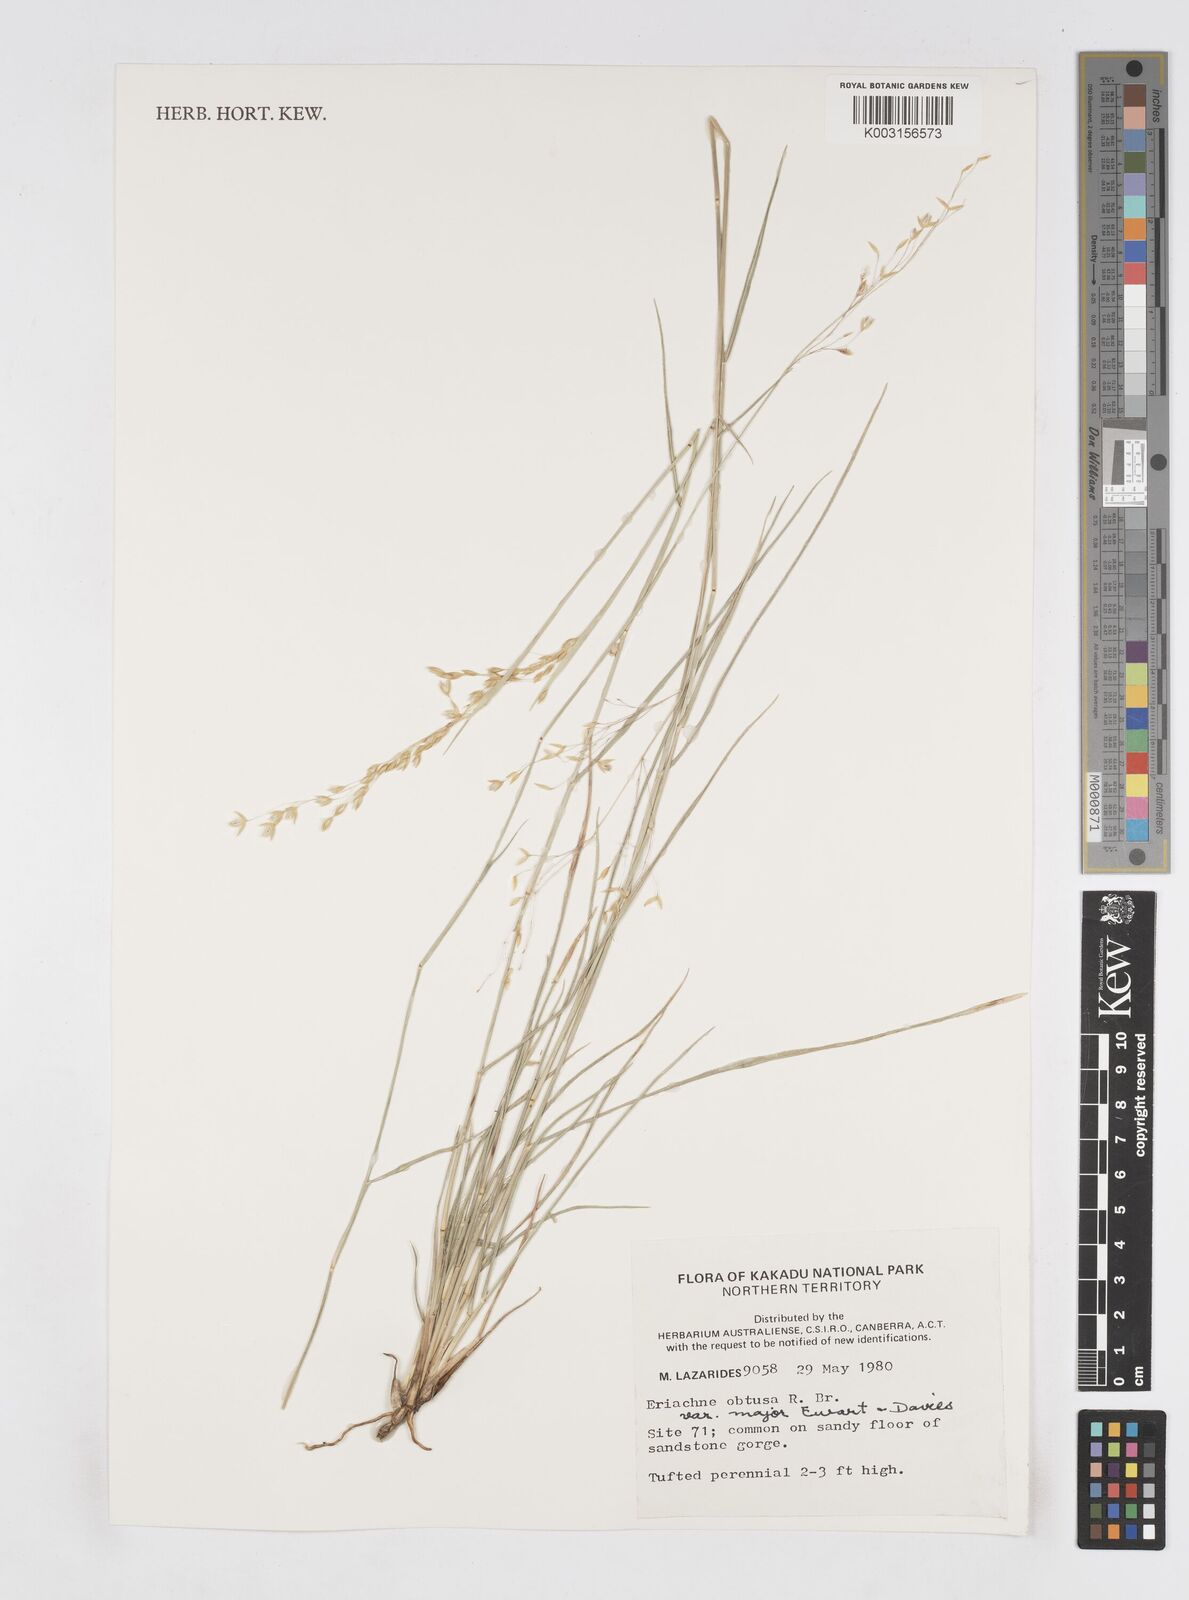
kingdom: Plantae
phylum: Tracheophyta
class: Liliopsida
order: Poales
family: Poaceae
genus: Eriachne
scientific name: Eriachne obtusa
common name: Northern wanderrie grass
